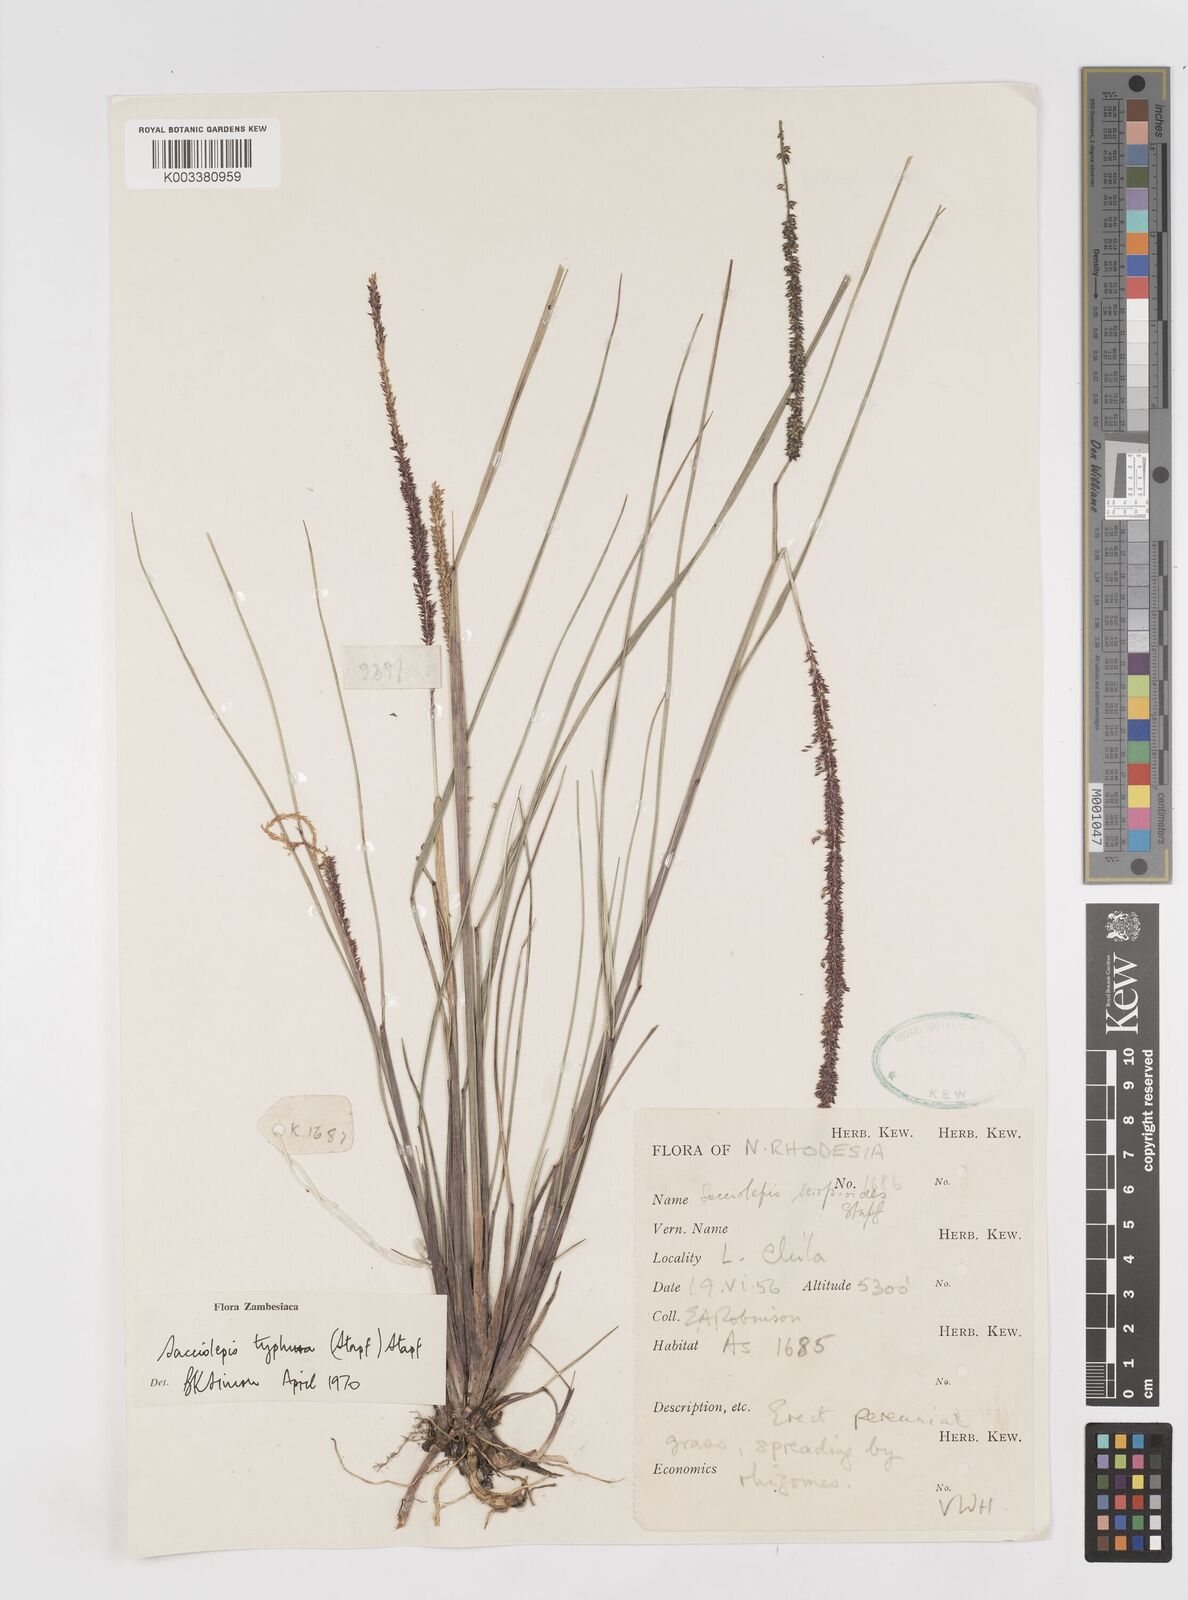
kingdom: Plantae
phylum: Tracheophyta
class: Liliopsida
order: Poales
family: Poaceae
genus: Sacciolepis
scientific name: Sacciolepis typhura
